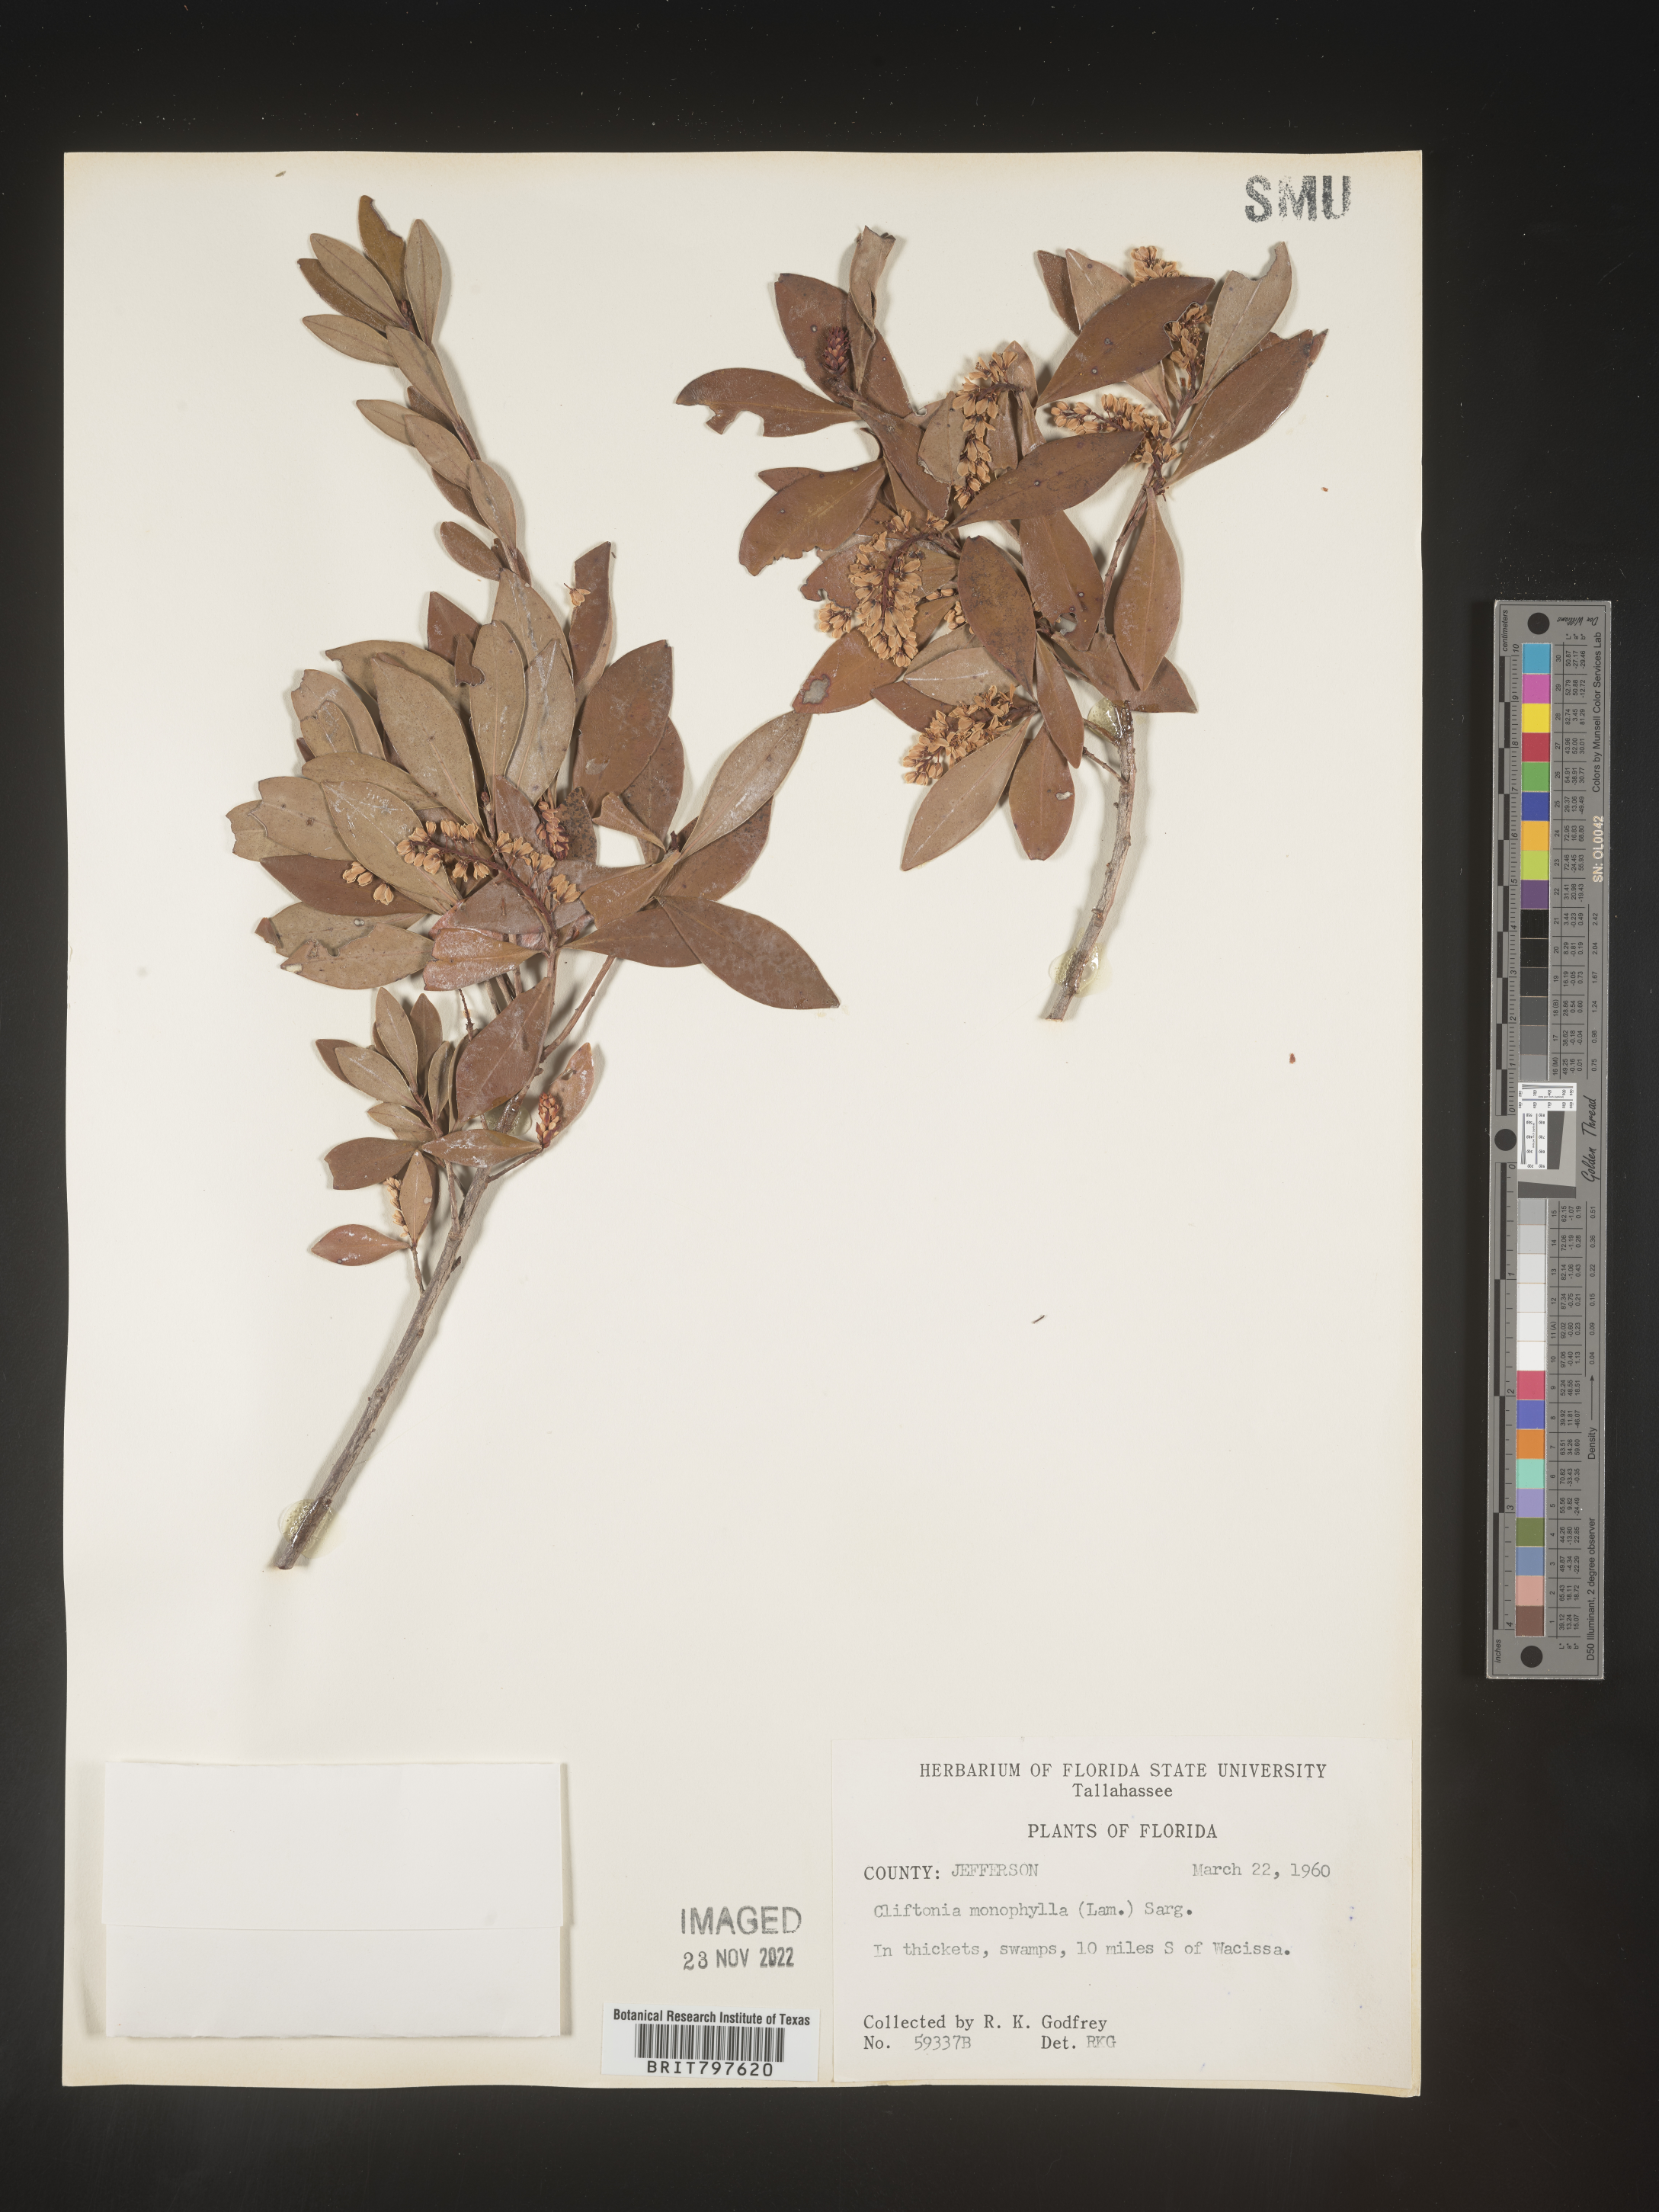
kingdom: Plantae
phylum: Tracheophyta
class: Magnoliopsida
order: Ericales
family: Cyrillaceae
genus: Cliftonia
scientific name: Cliftonia monophylla
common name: Titi
